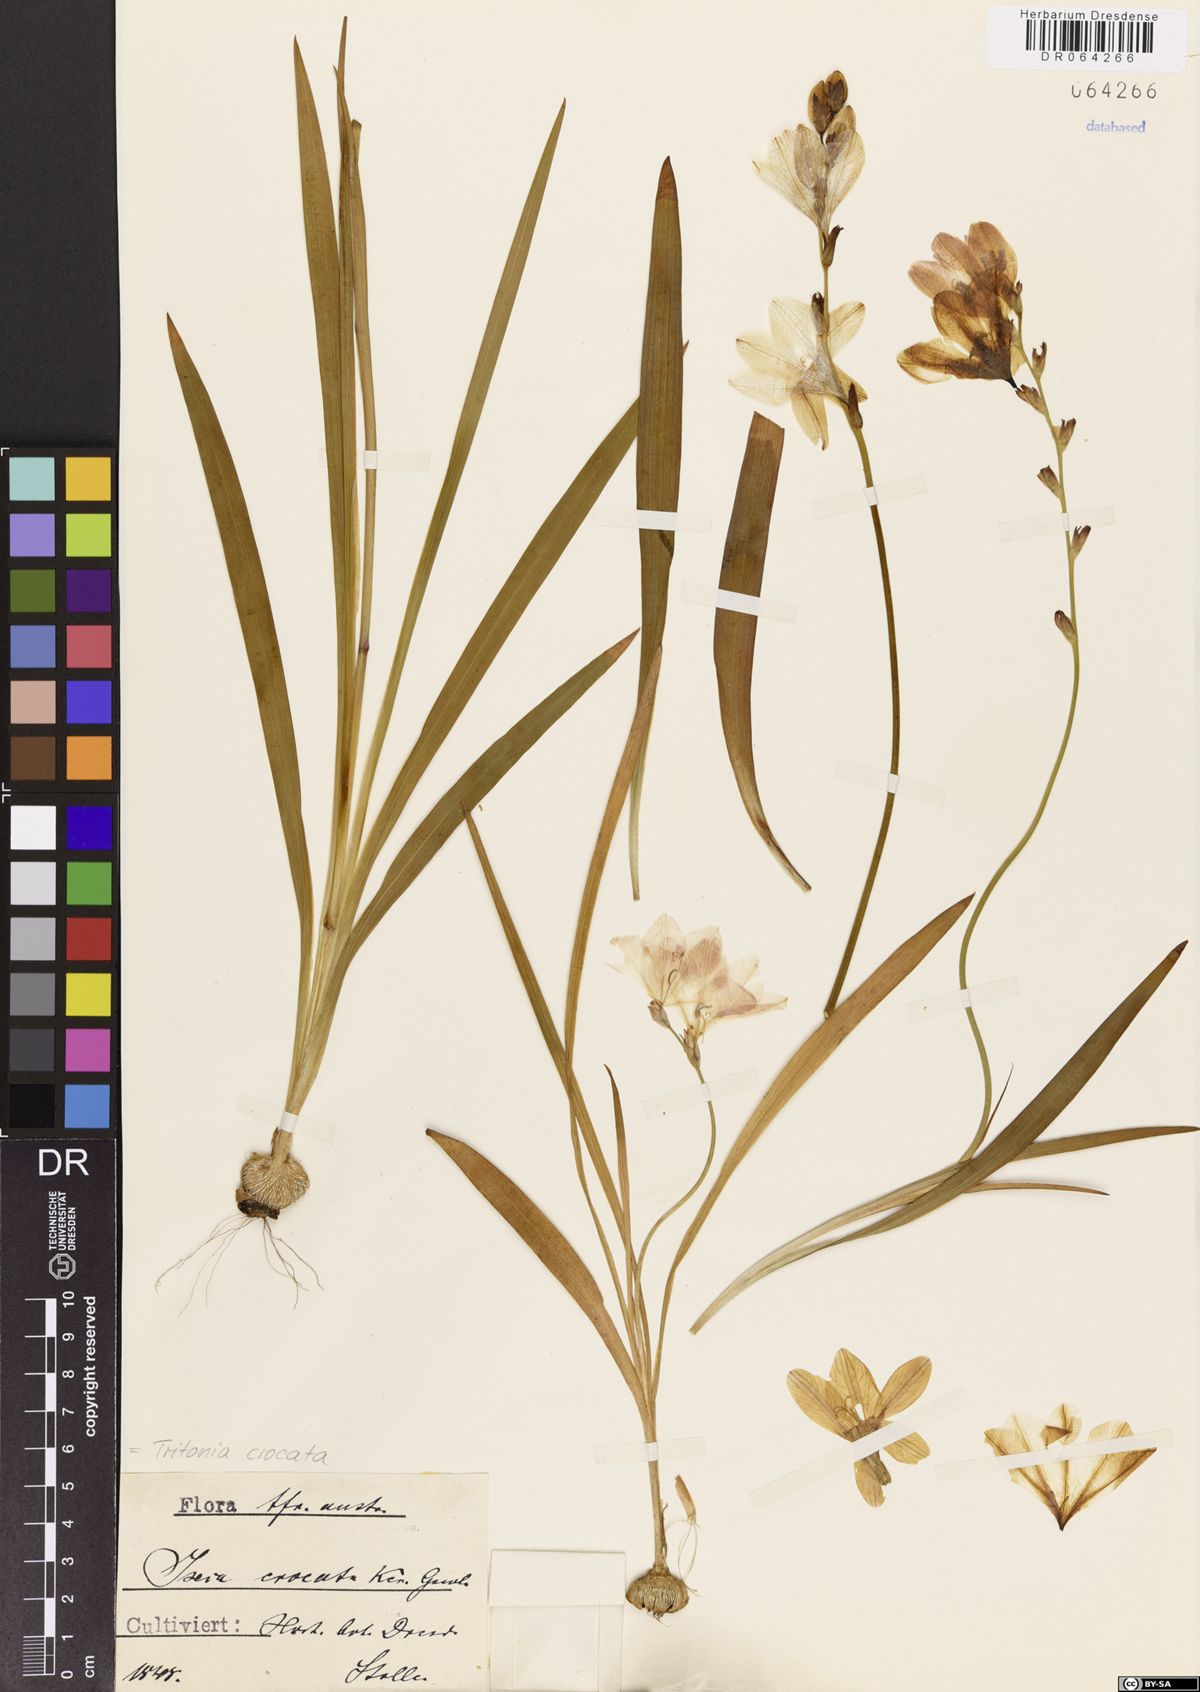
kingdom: Plantae
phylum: Tracheophyta
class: Liliopsida
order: Asparagales
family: Iridaceae
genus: Tritonia
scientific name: Tritonia crocata
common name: Flame-freesia
